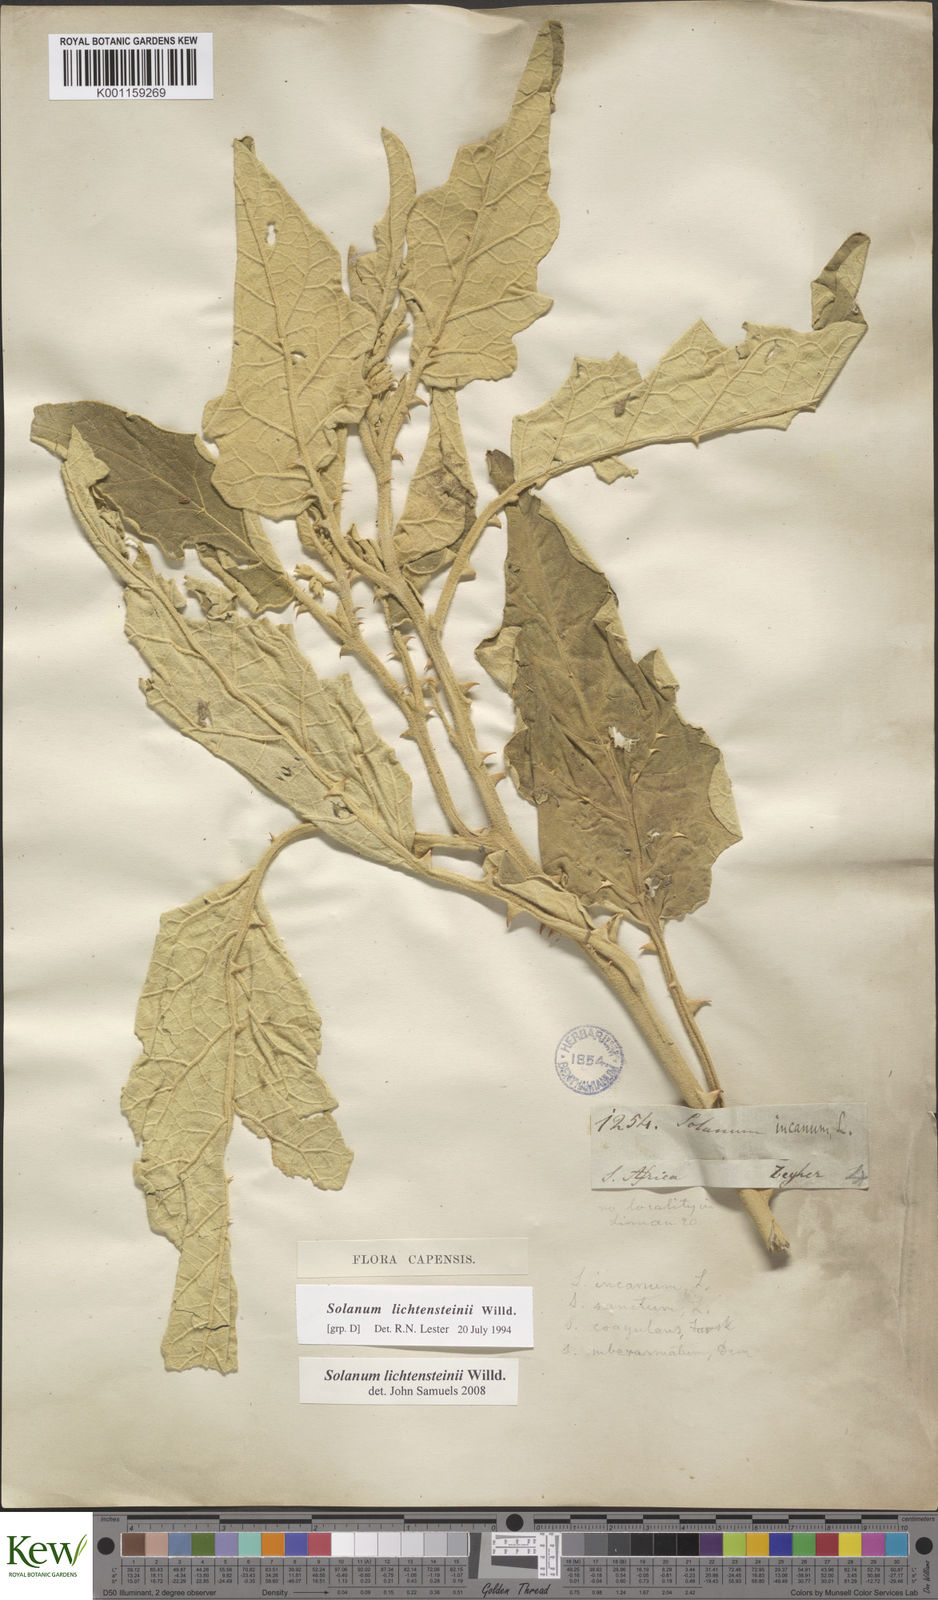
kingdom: Plantae
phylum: Tracheophyta
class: Magnoliopsida
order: Solanales
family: Solanaceae
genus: Solanum
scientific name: Solanum lichtensteinii
